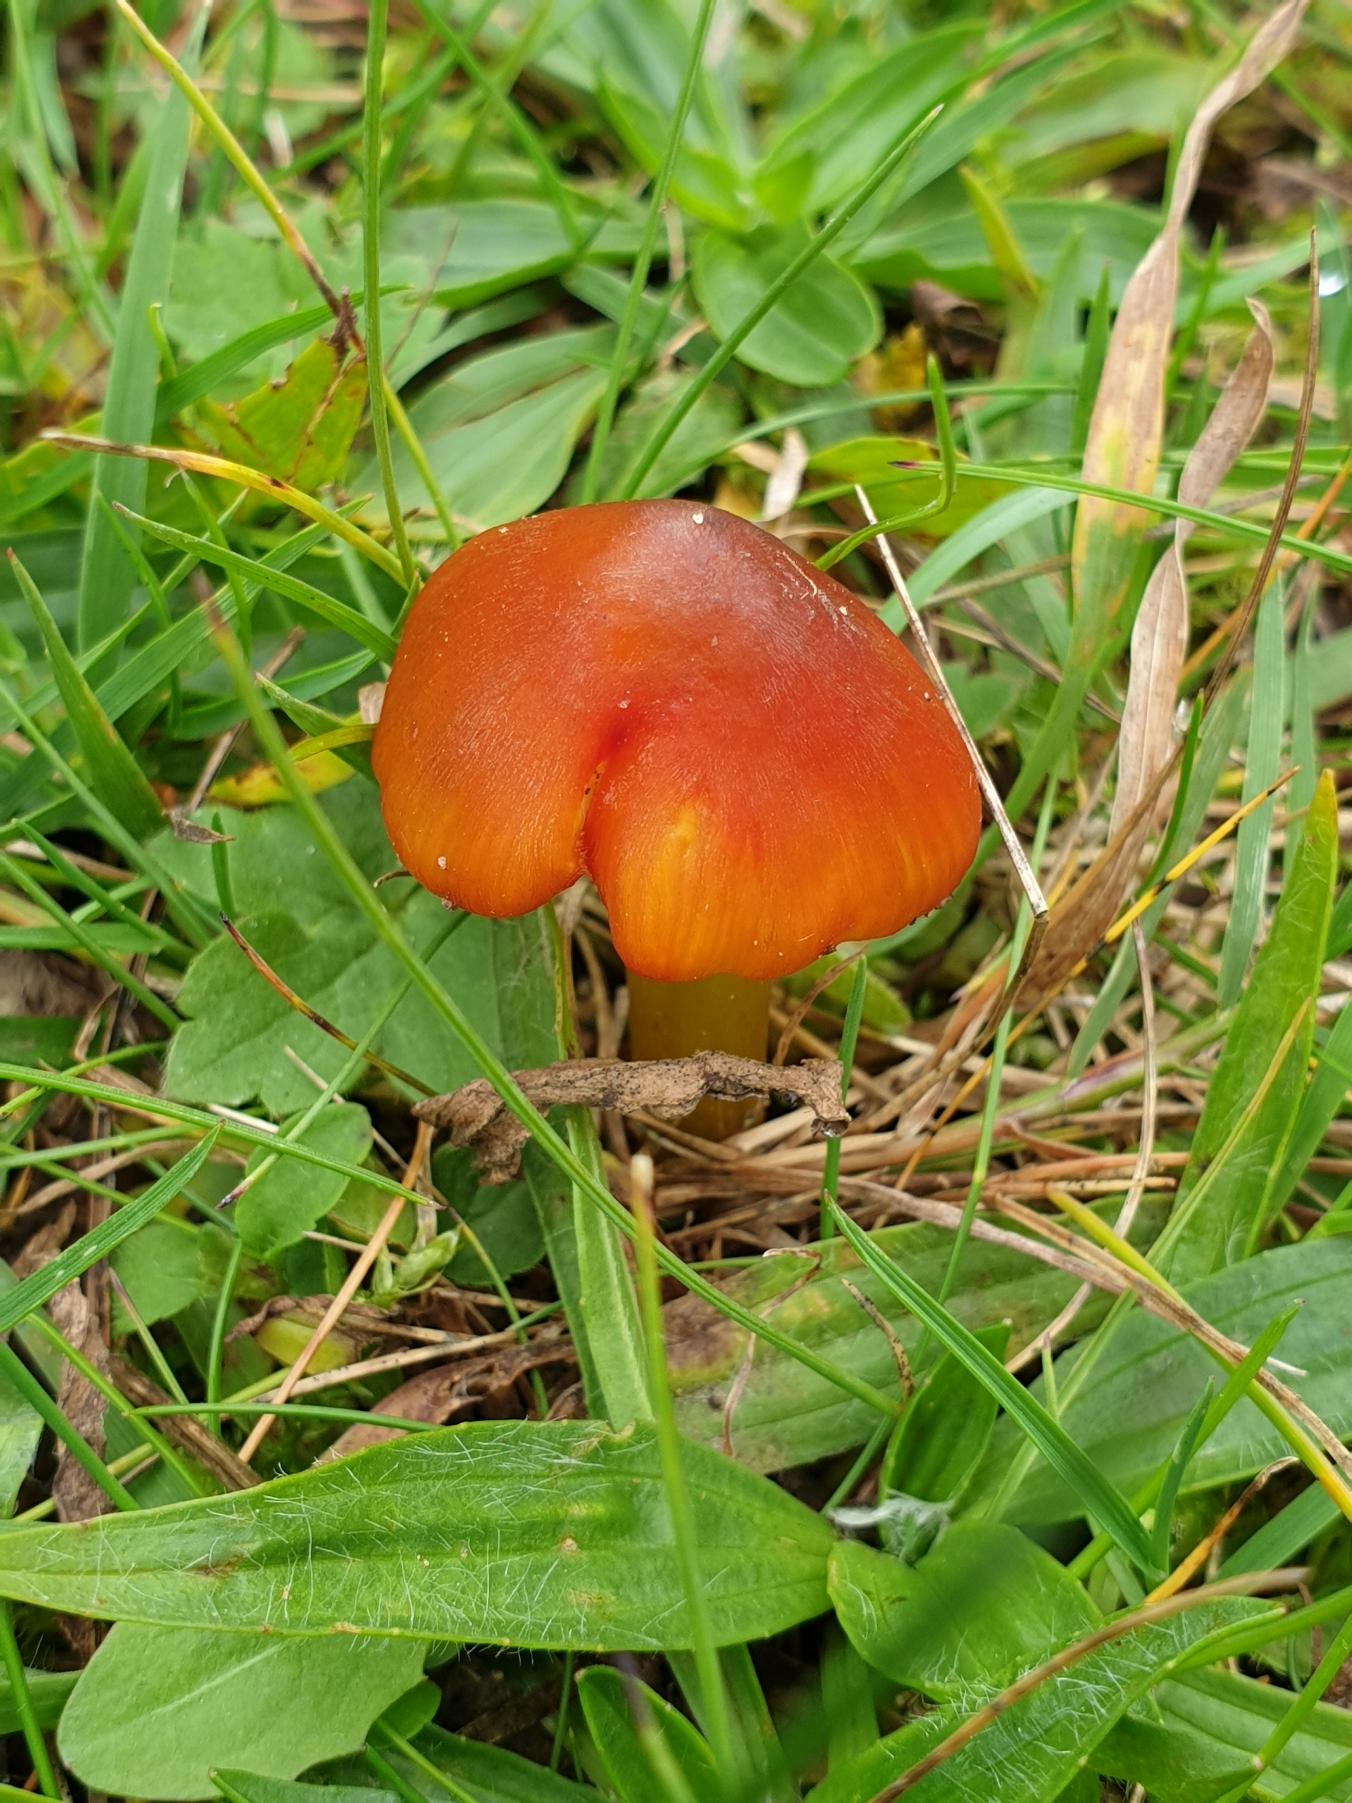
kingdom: Fungi
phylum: Basidiomycota
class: Agaricomycetes
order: Agaricales
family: Hygrophoraceae
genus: Hygrocybe
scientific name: Hygrocybe conica
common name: Kegle-vokshat
